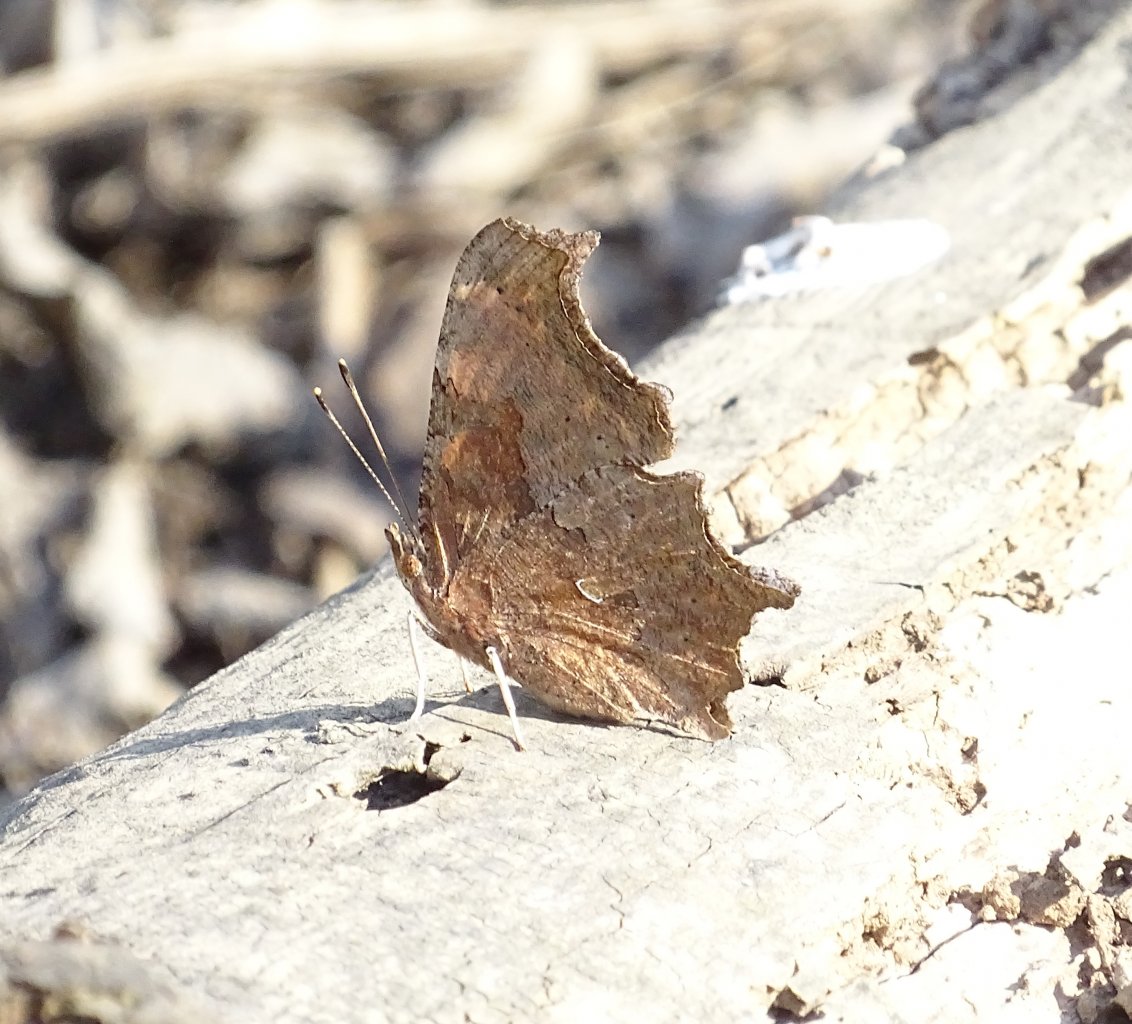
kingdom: Animalia
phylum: Arthropoda
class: Insecta
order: Lepidoptera
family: Nymphalidae
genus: Polygonia
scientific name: Polygonia comma
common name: Eastern Comma
